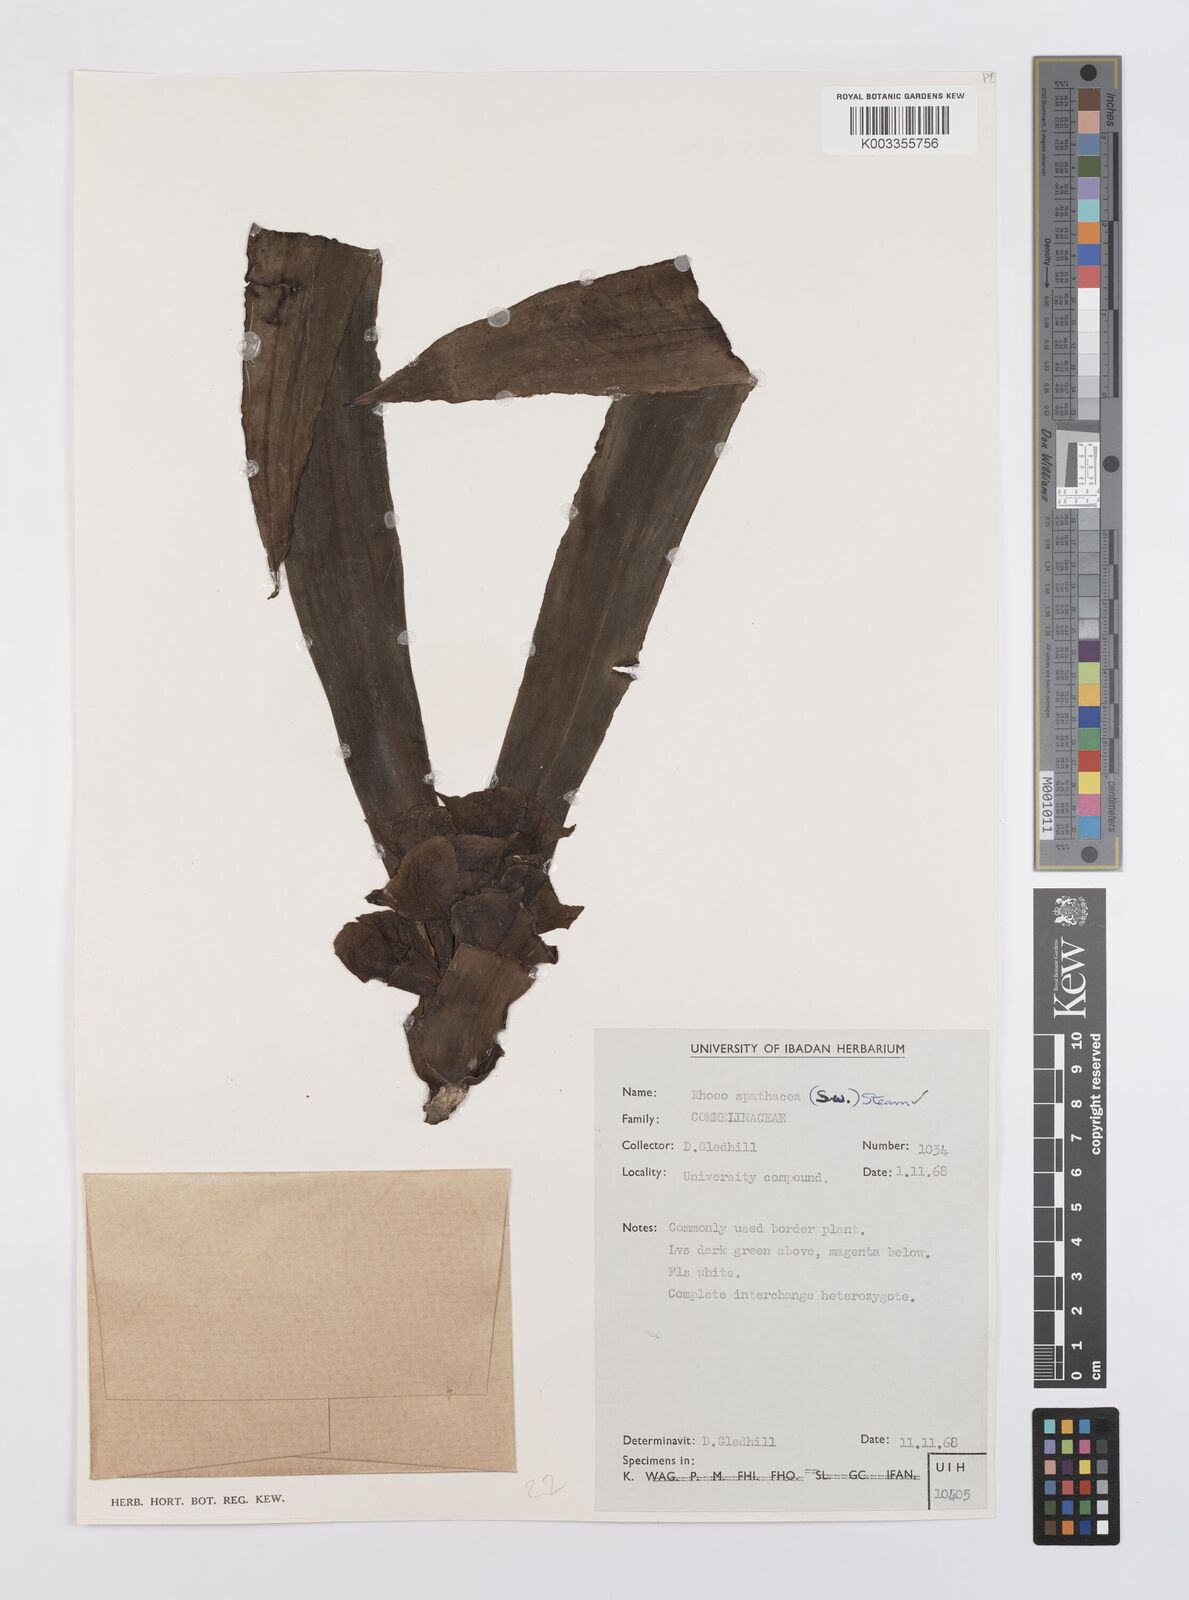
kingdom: Plantae
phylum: Tracheophyta
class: Liliopsida
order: Commelinales
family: Commelinaceae
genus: Tradescantia
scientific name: Tradescantia spathacea
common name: Boatlily
